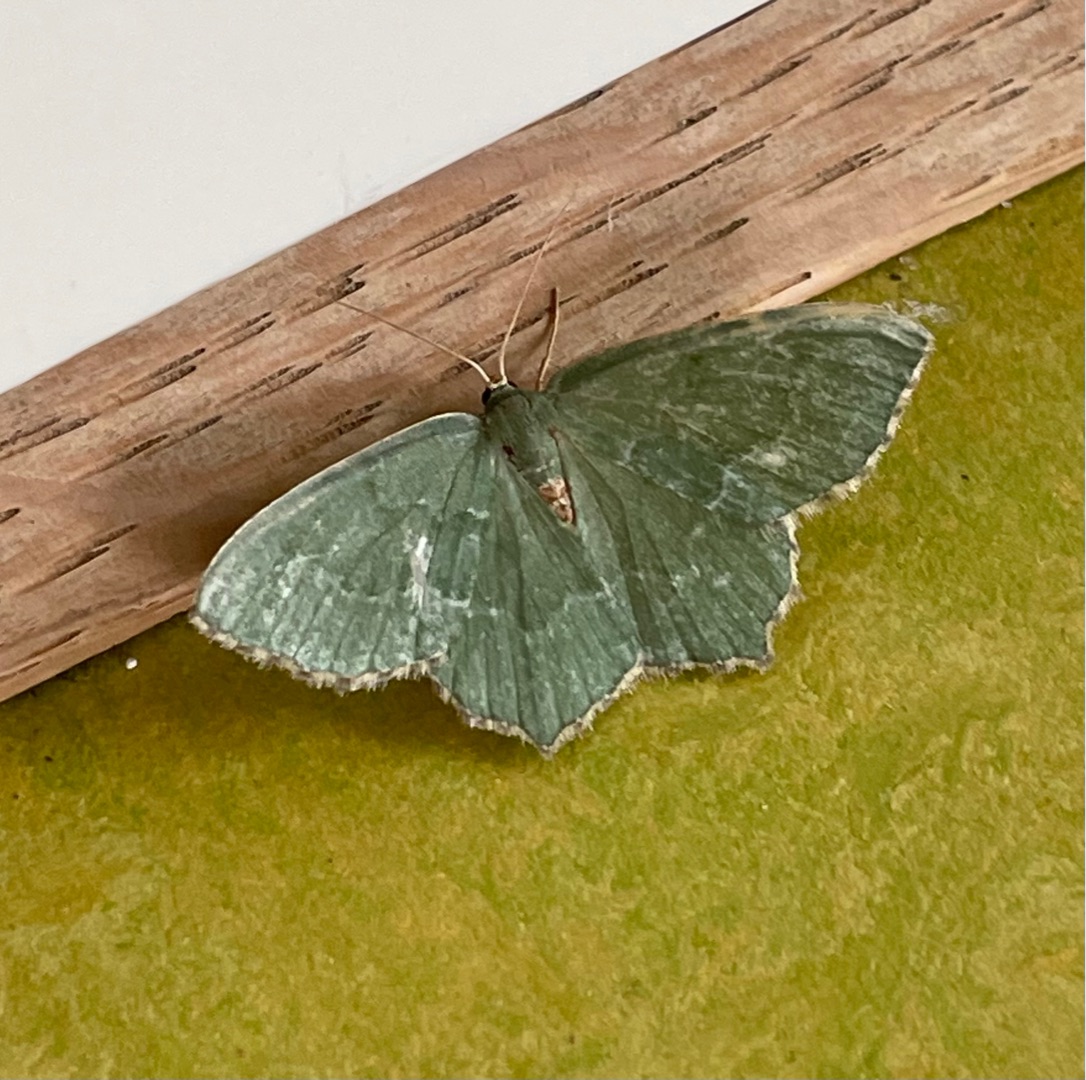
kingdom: Animalia
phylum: Arthropoda
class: Insecta
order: Lepidoptera
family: Geometridae
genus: Hemithea
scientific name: Hemithea aestivaria
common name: Lundmåler
